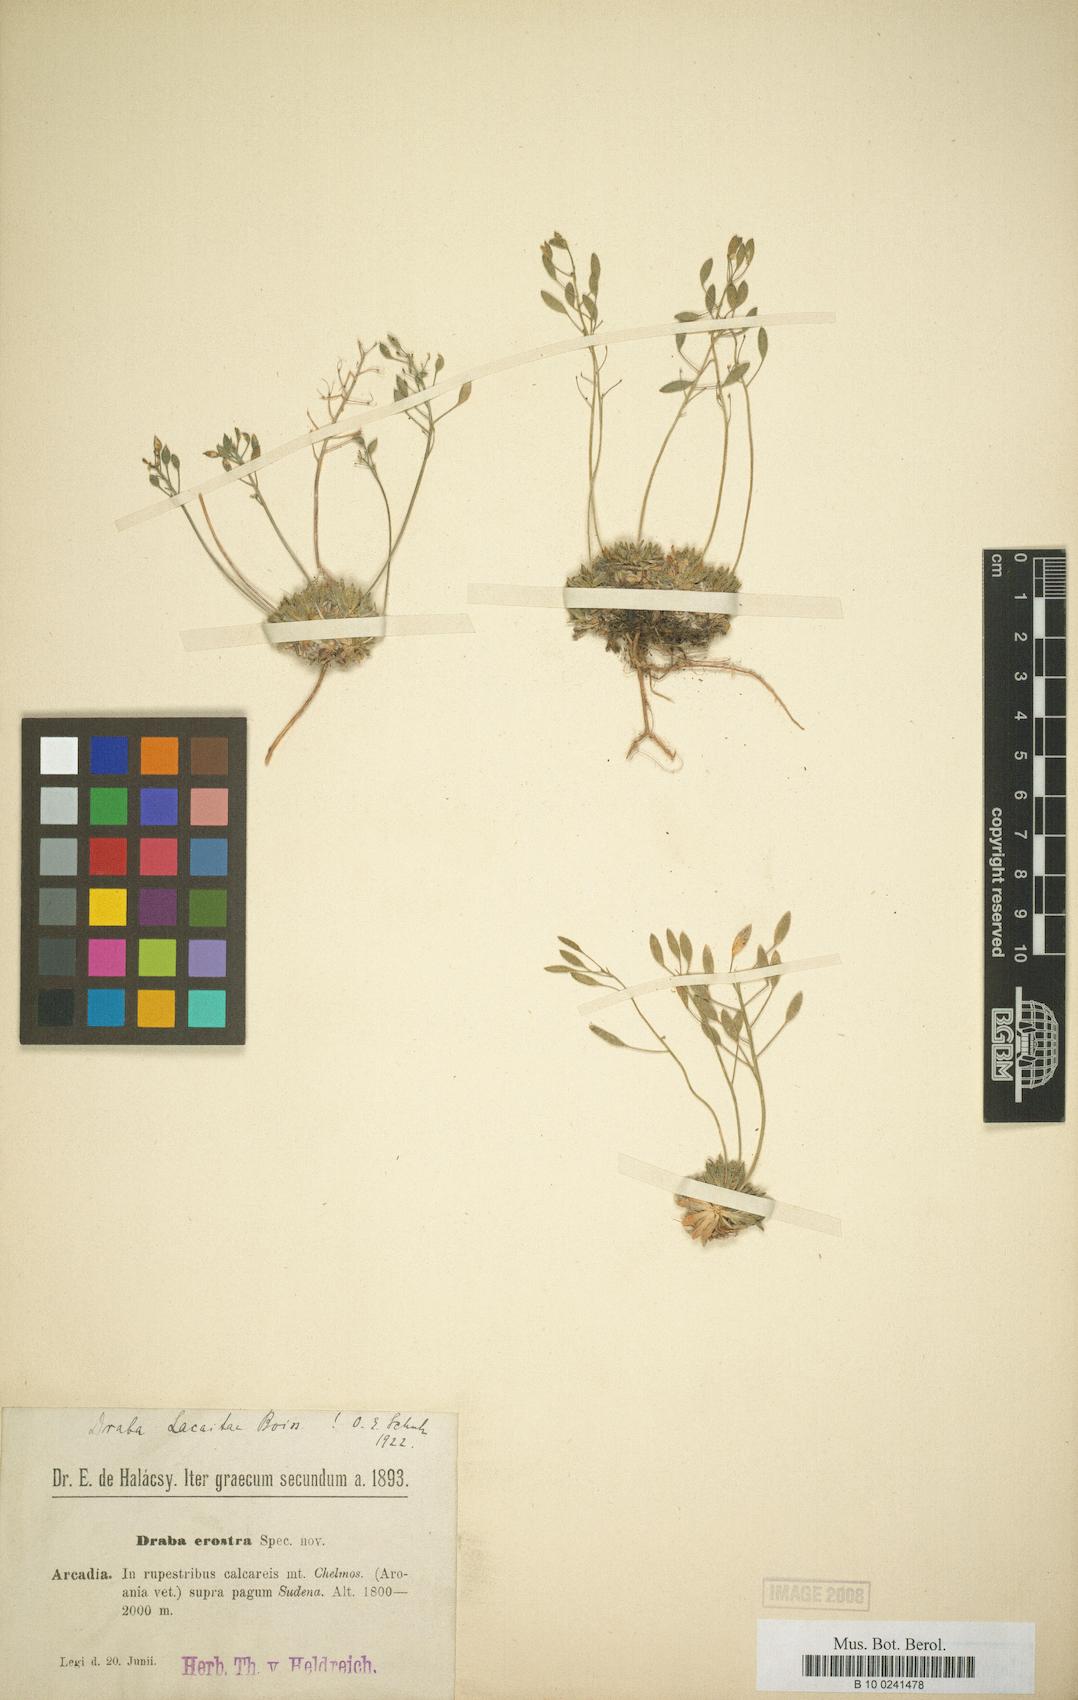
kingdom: Plantae
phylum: Tracheophyta
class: Magnoliopsida
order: Brassicales
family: Brassicaceae
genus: Draba
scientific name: Draba lacaitae
